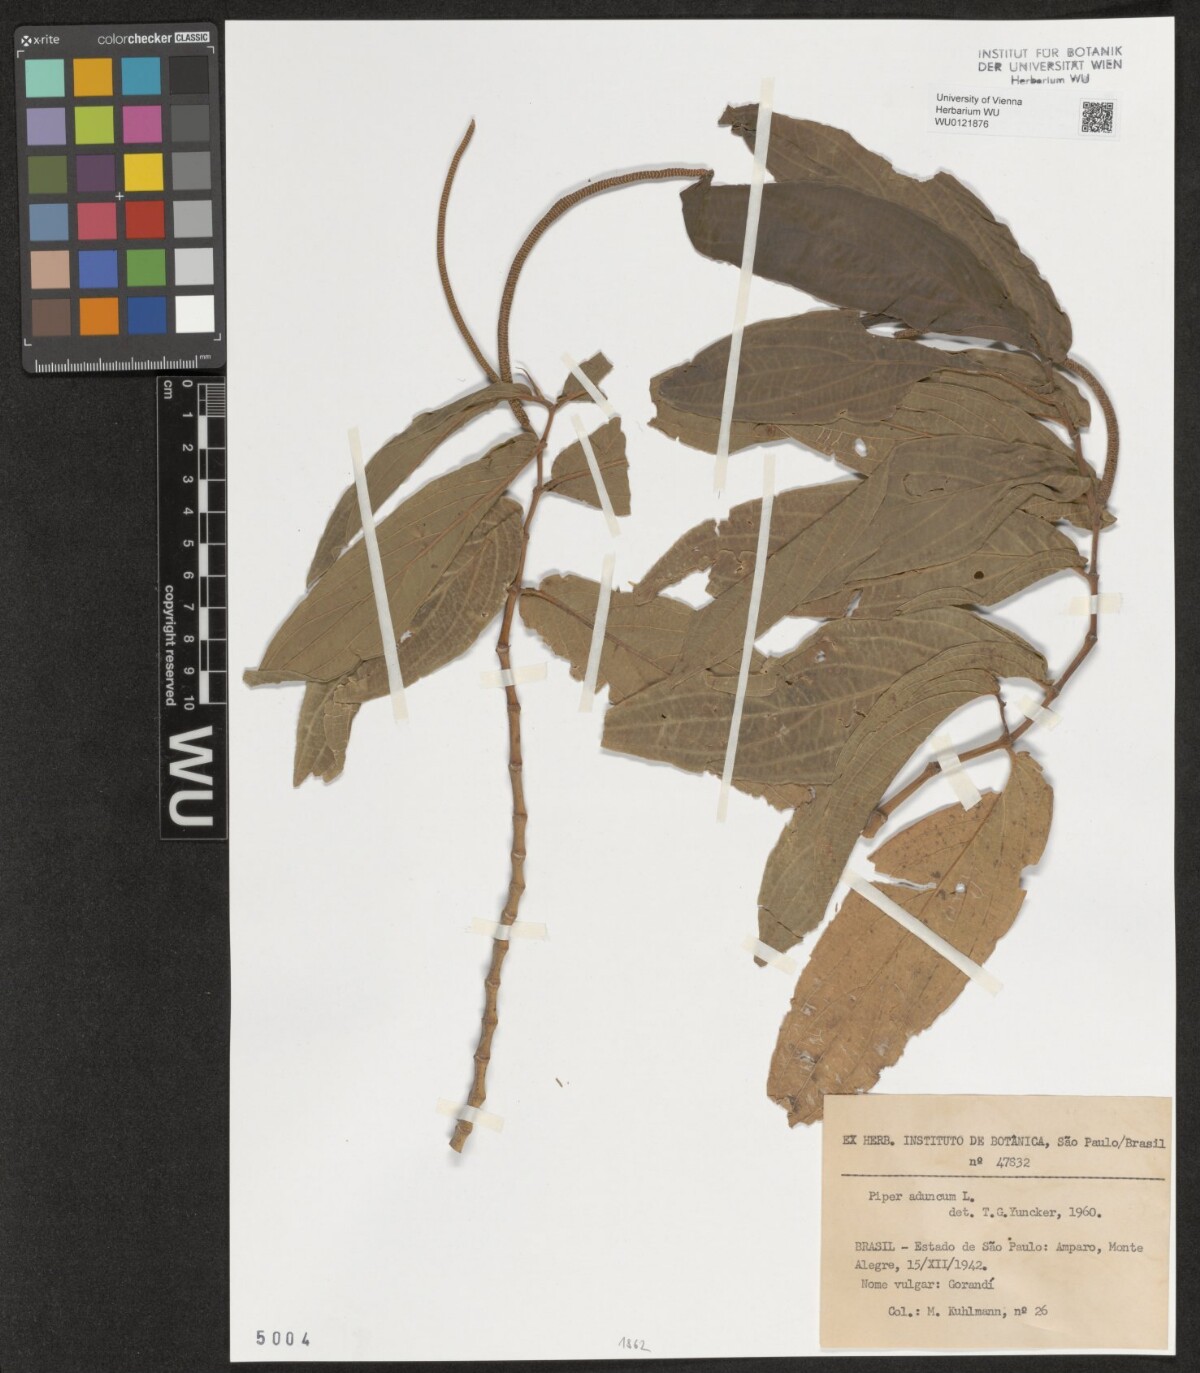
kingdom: Plantae
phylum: Tracheophyta
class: Magnoliopsida
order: Piperales
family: Piperaceae
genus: Piper
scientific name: Piper aduncum
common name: Spiked pepper
